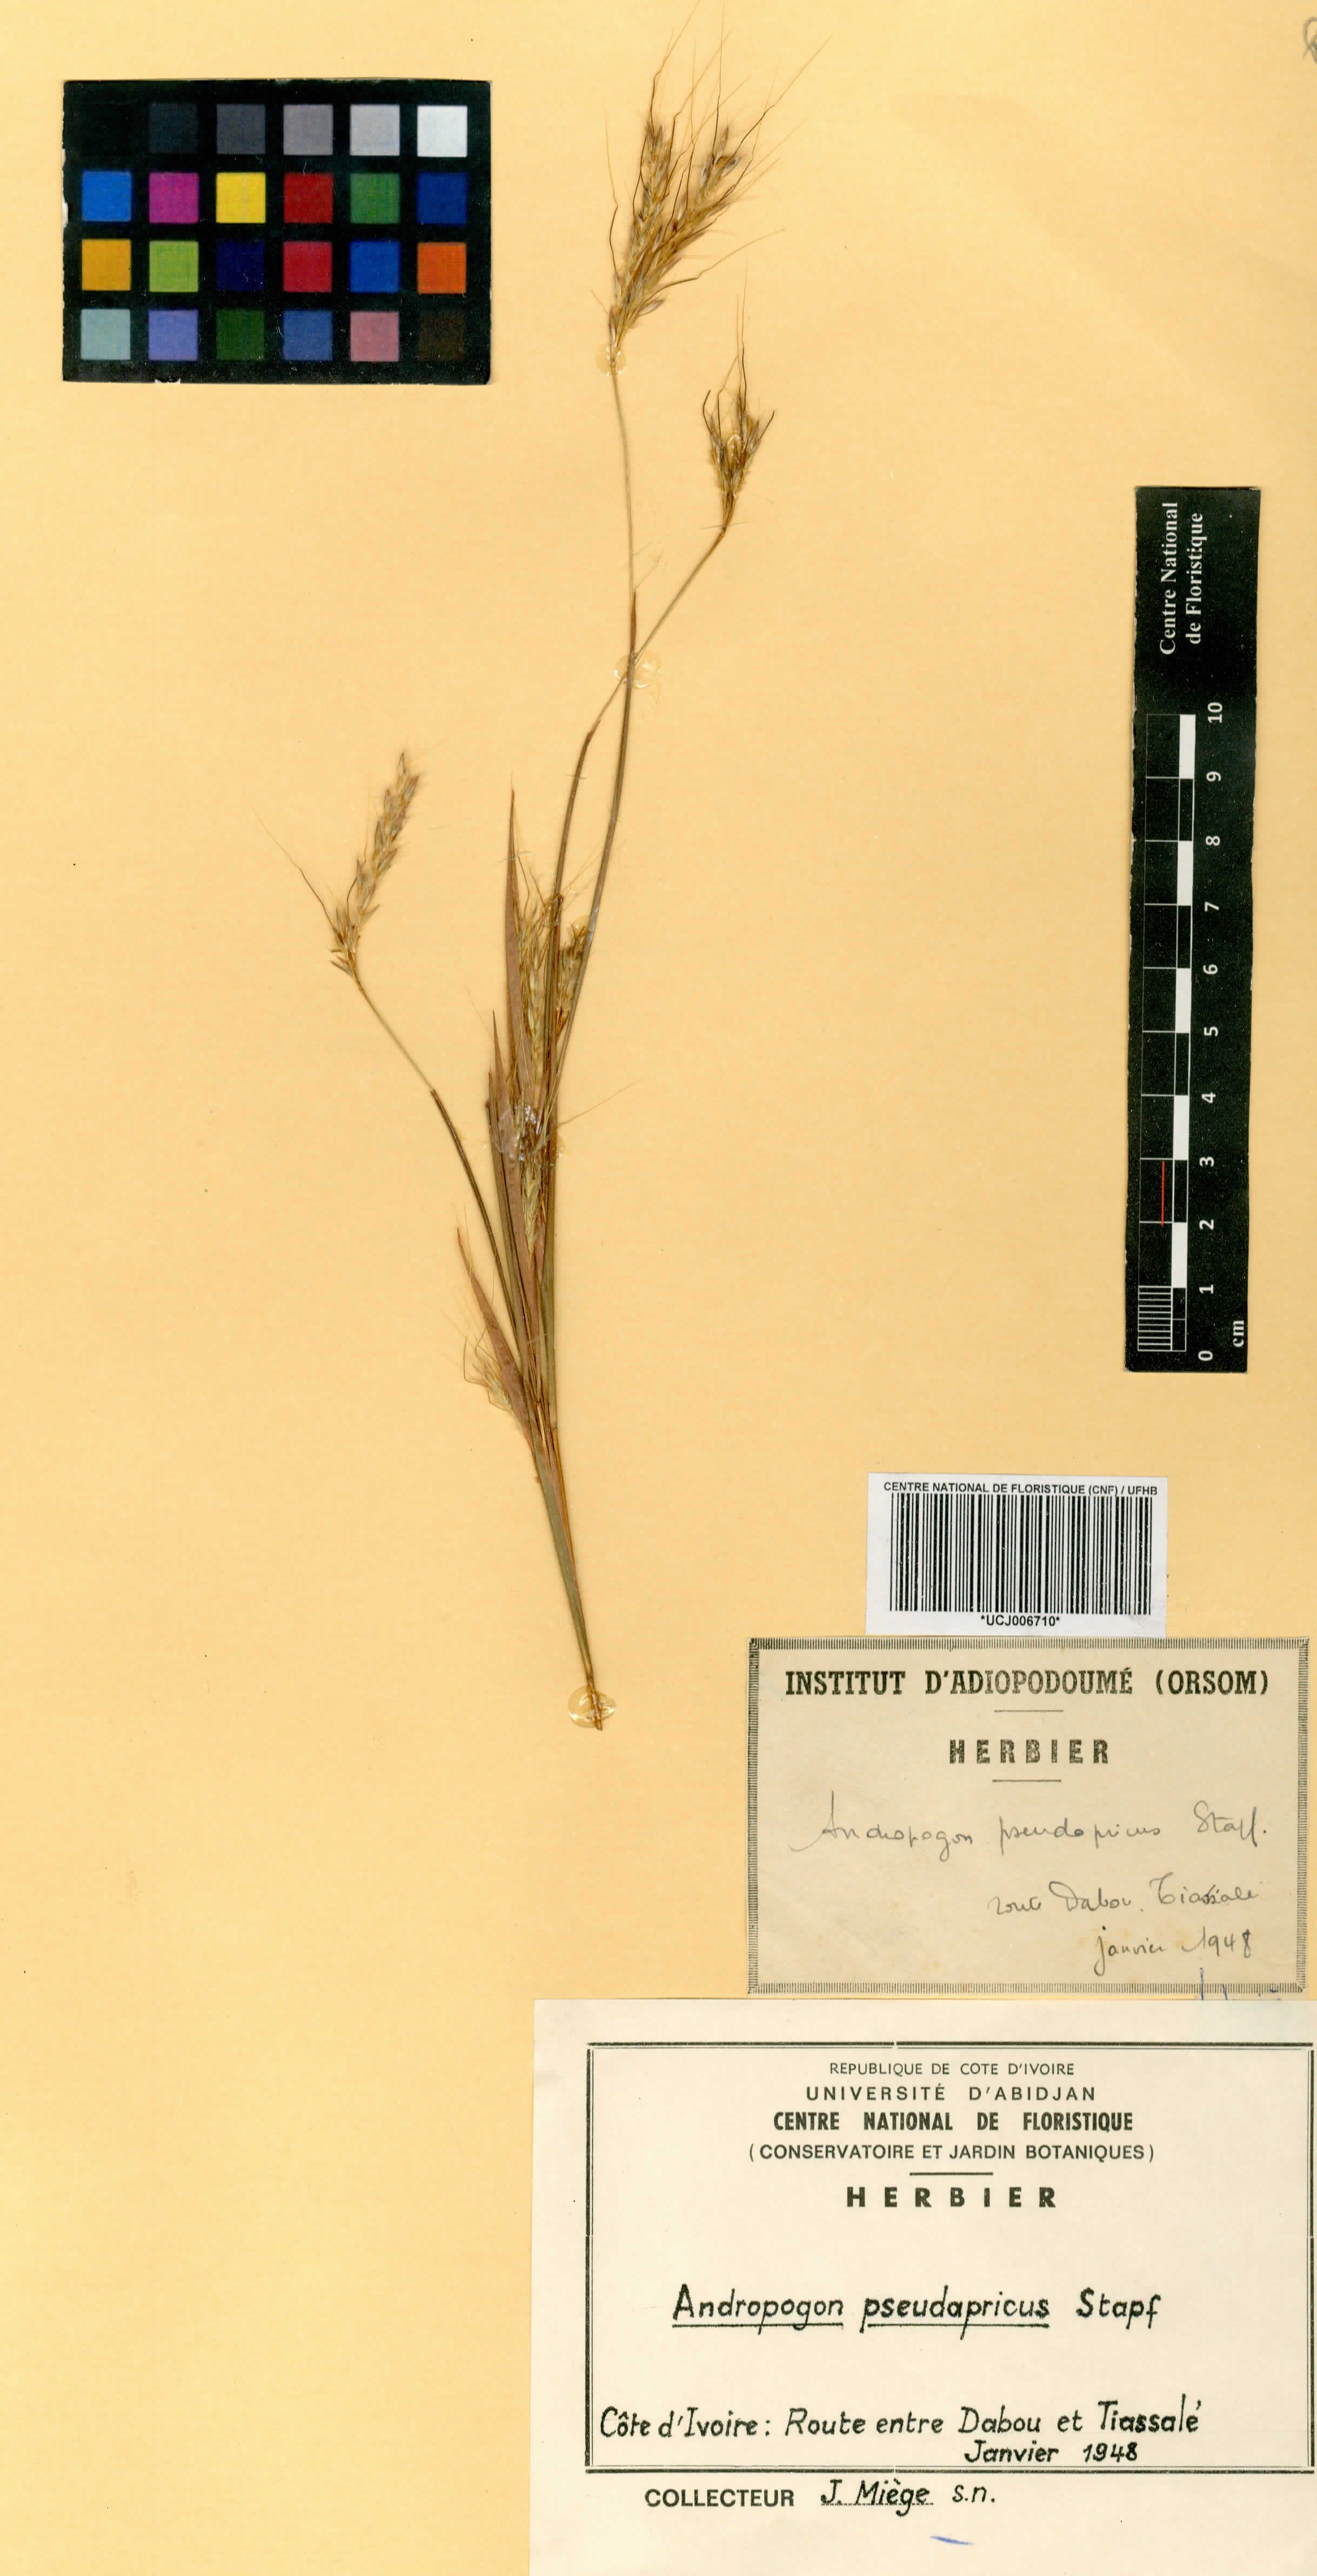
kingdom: Plantae
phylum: Tracheophyta
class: Liliopsida
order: Poales
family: Poaceae
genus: Andropogon
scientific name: Andropogon pseudapricus
